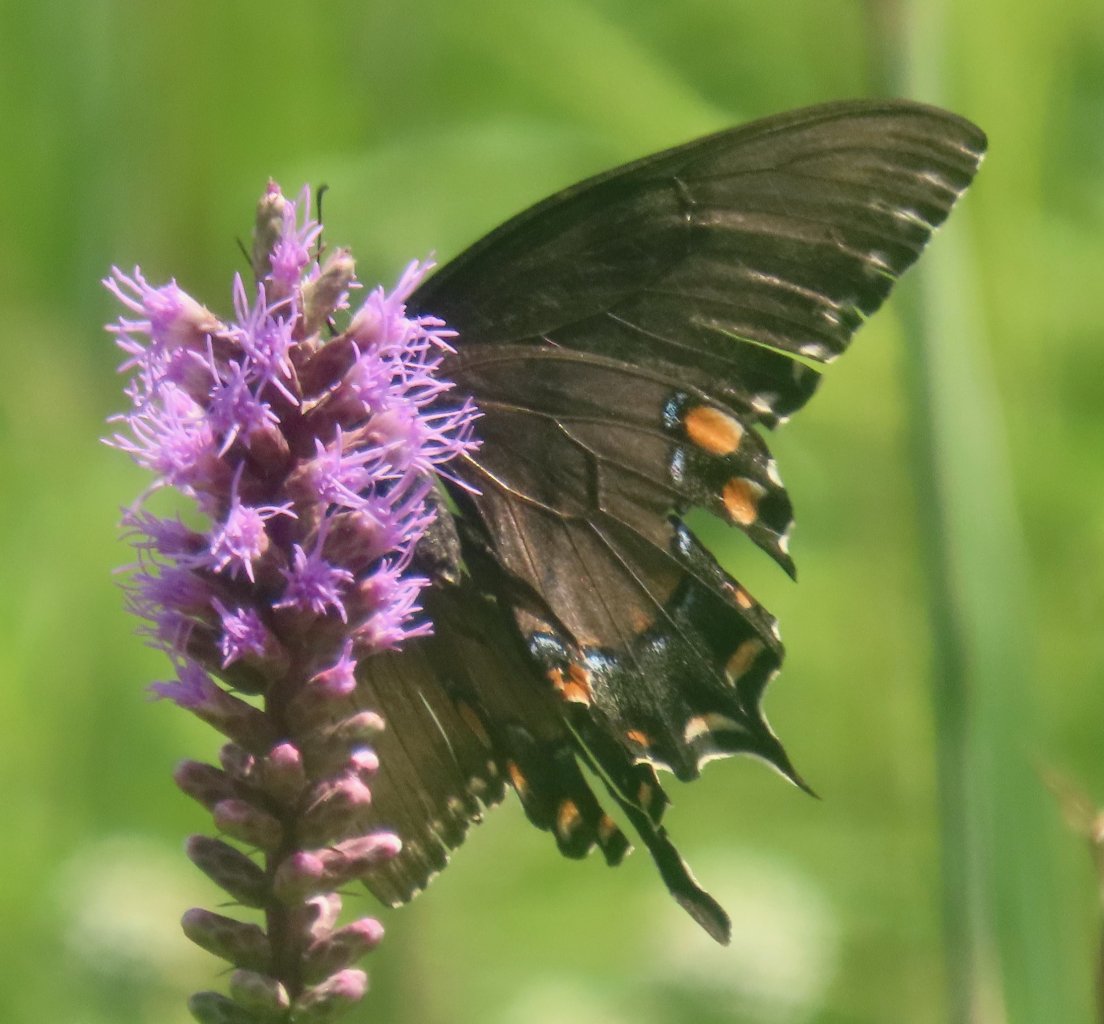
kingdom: Animalia
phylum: Arthropoda
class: Insecta
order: Lepidoptera
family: Papilionidae
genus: Pterourus
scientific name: Pterourus glaucus
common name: Eastern Tiger Swallowtail
